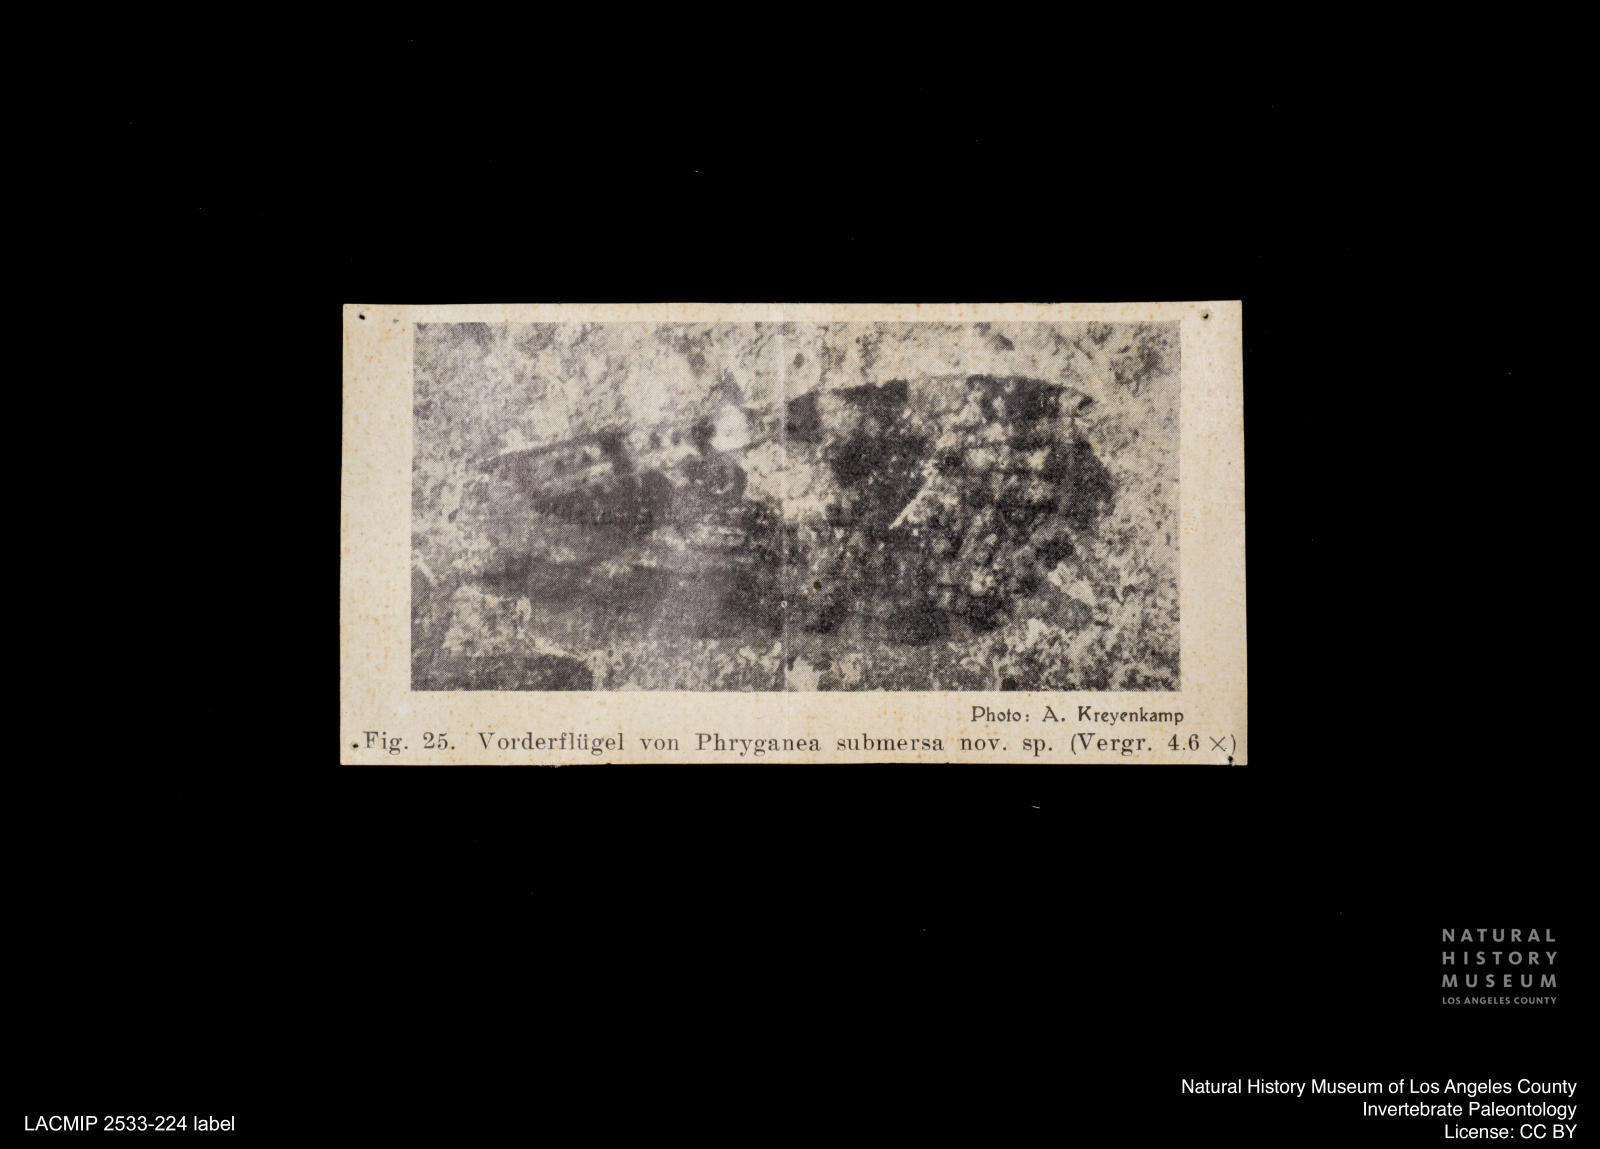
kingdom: Animalia
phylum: Arthropoda
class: Insecta
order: Trichoptera
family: Phryganeidae
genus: Phryganea
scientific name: Phryganea submersa
